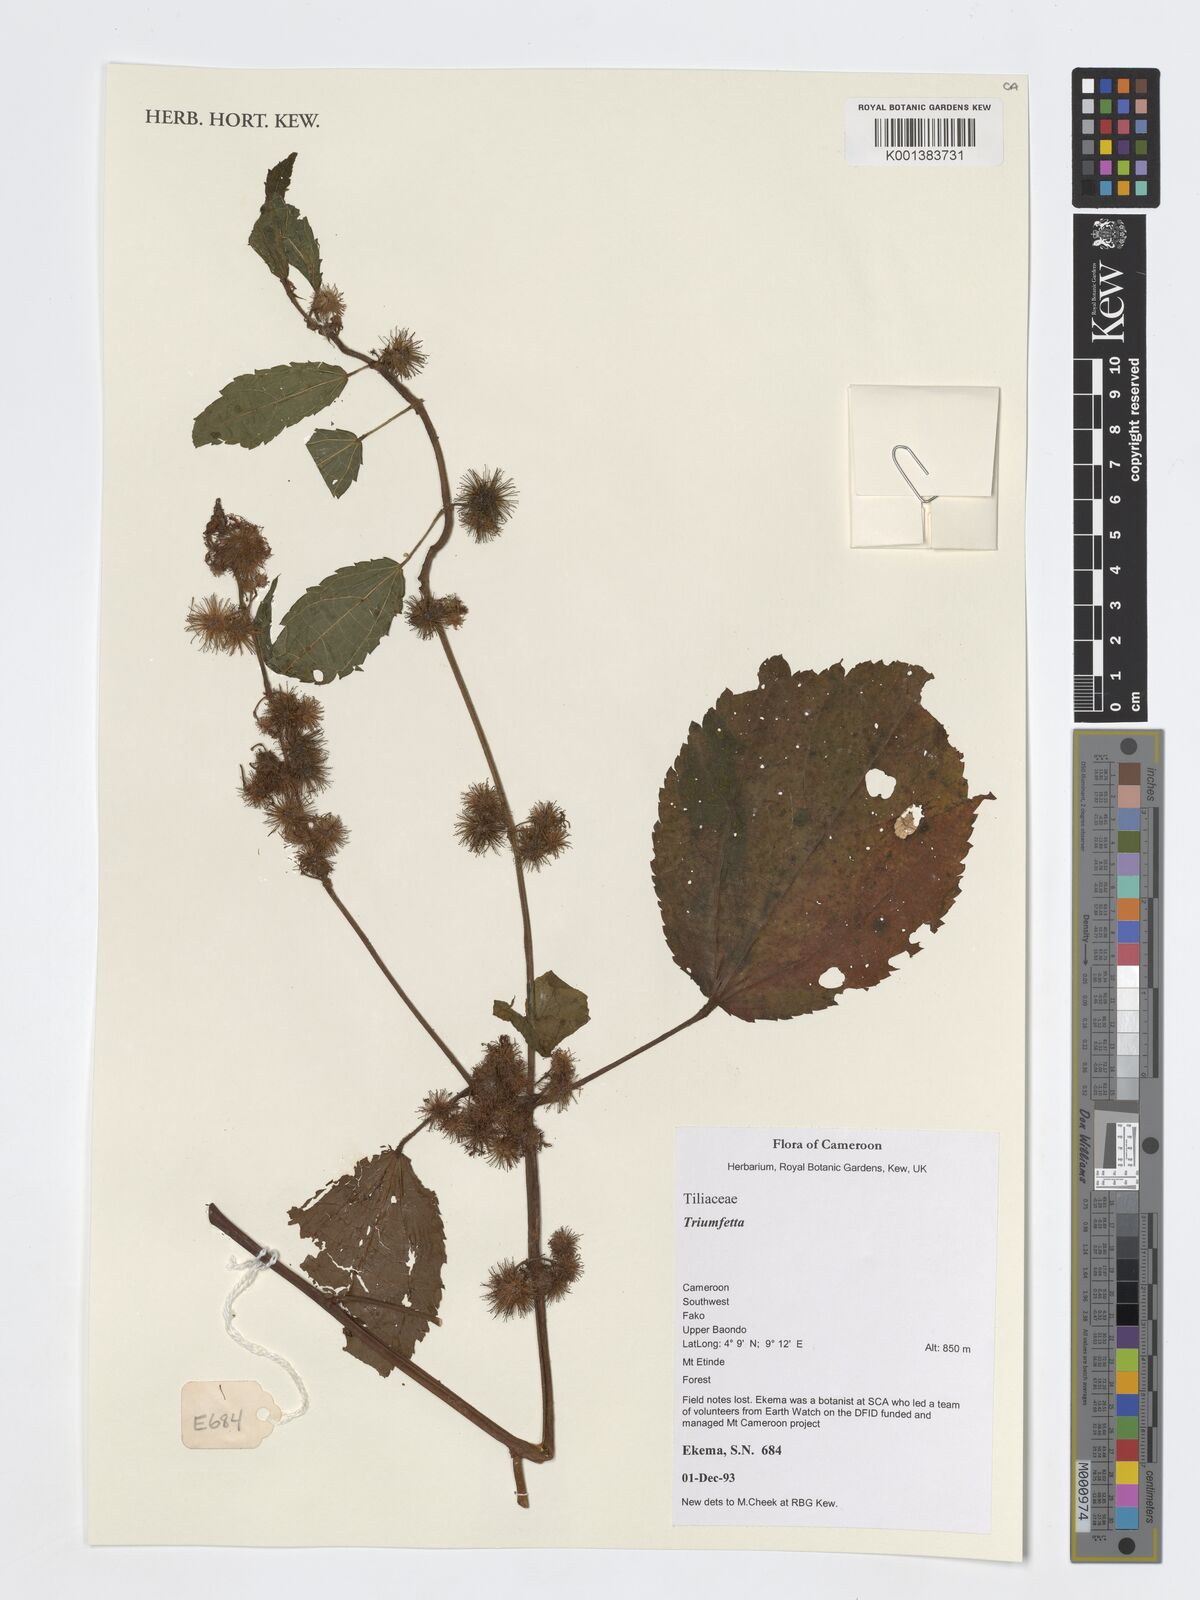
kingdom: Plantae
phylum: Tracheophyta
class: Magnoliopsida
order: Malvales
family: Malvaceae
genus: Triumfetta
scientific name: Triumfetta
